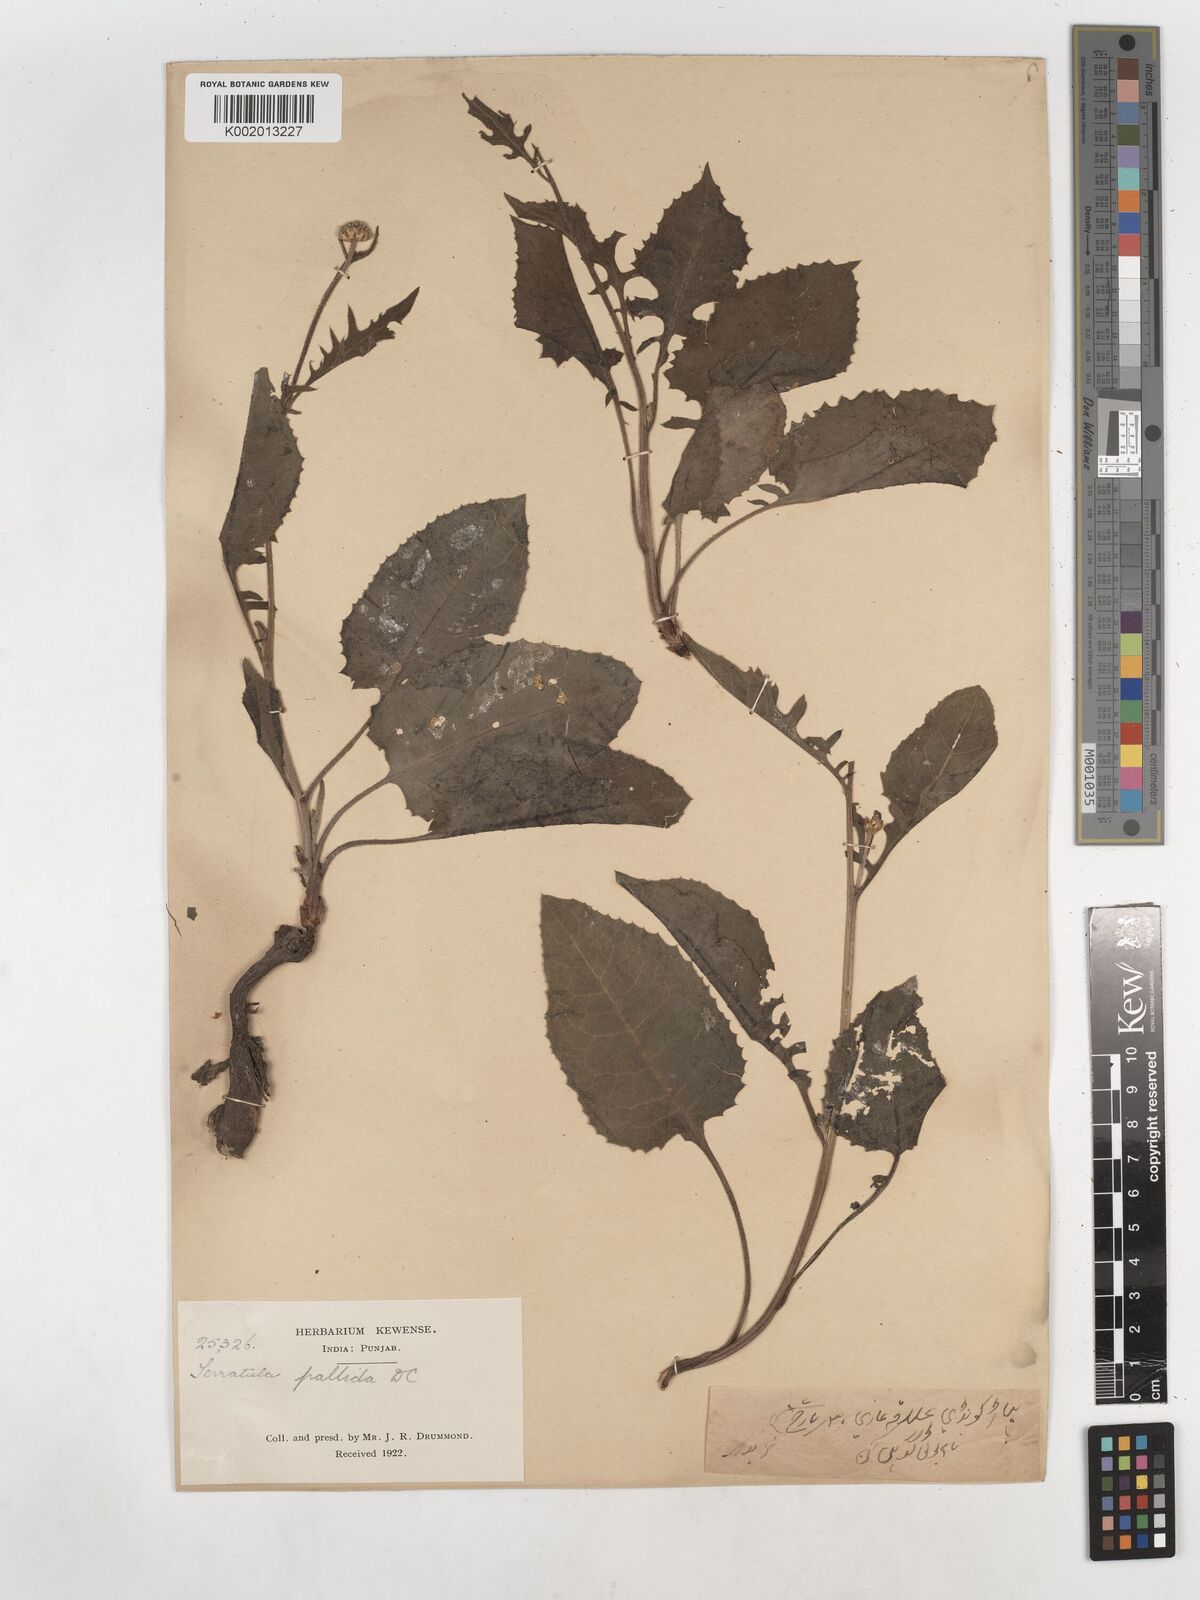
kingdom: Plantae
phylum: Tracheophyta
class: Magnoliopsida
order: Asterales
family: Asteraceae
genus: Klasea
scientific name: Klasea pallida
